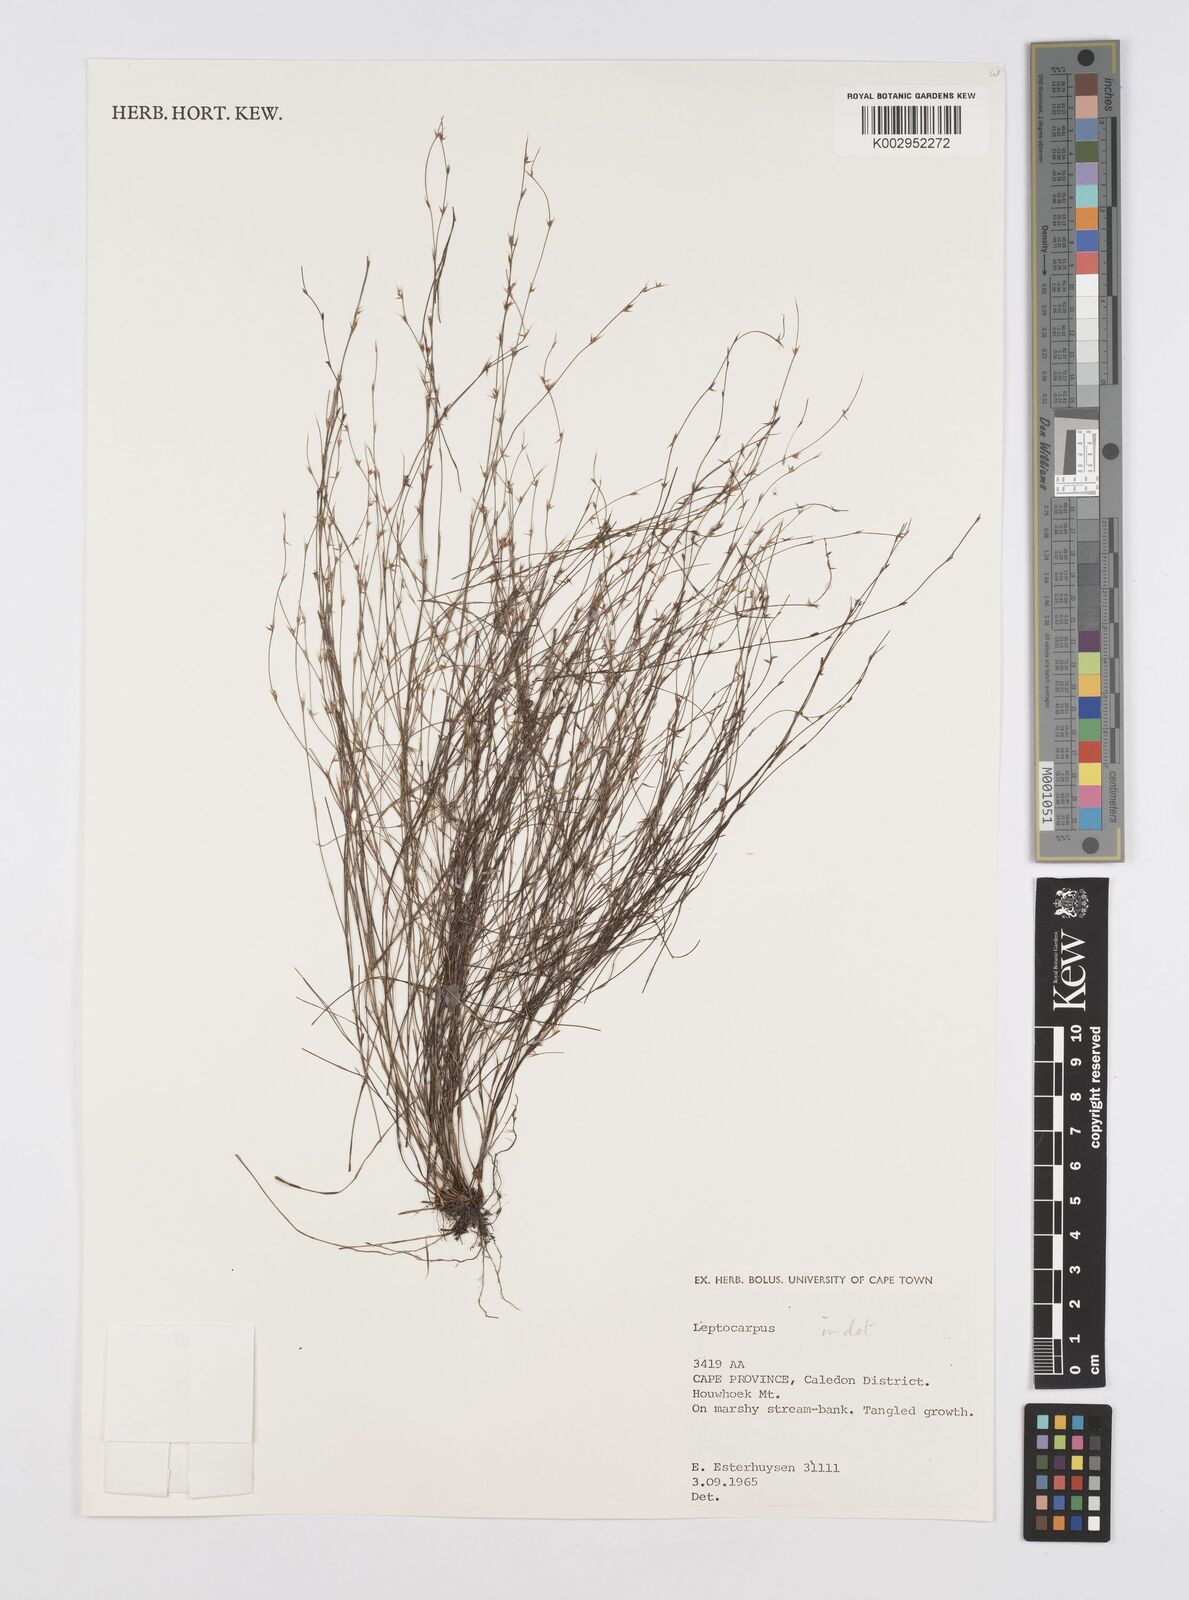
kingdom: Plantae
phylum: Tracheophyta
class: Liliopsida
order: Poales
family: Restionaceae
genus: Restio
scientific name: Restio
